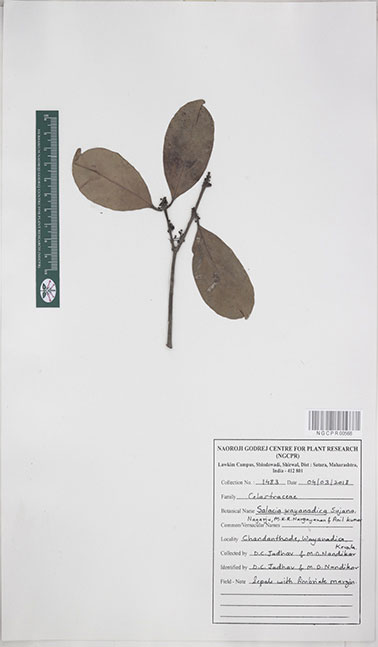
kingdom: Plantae
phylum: Tracheophyta
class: Magnoliopsida
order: Celastrales
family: Celastraceae
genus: Salacia
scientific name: Salacia wayanadica
